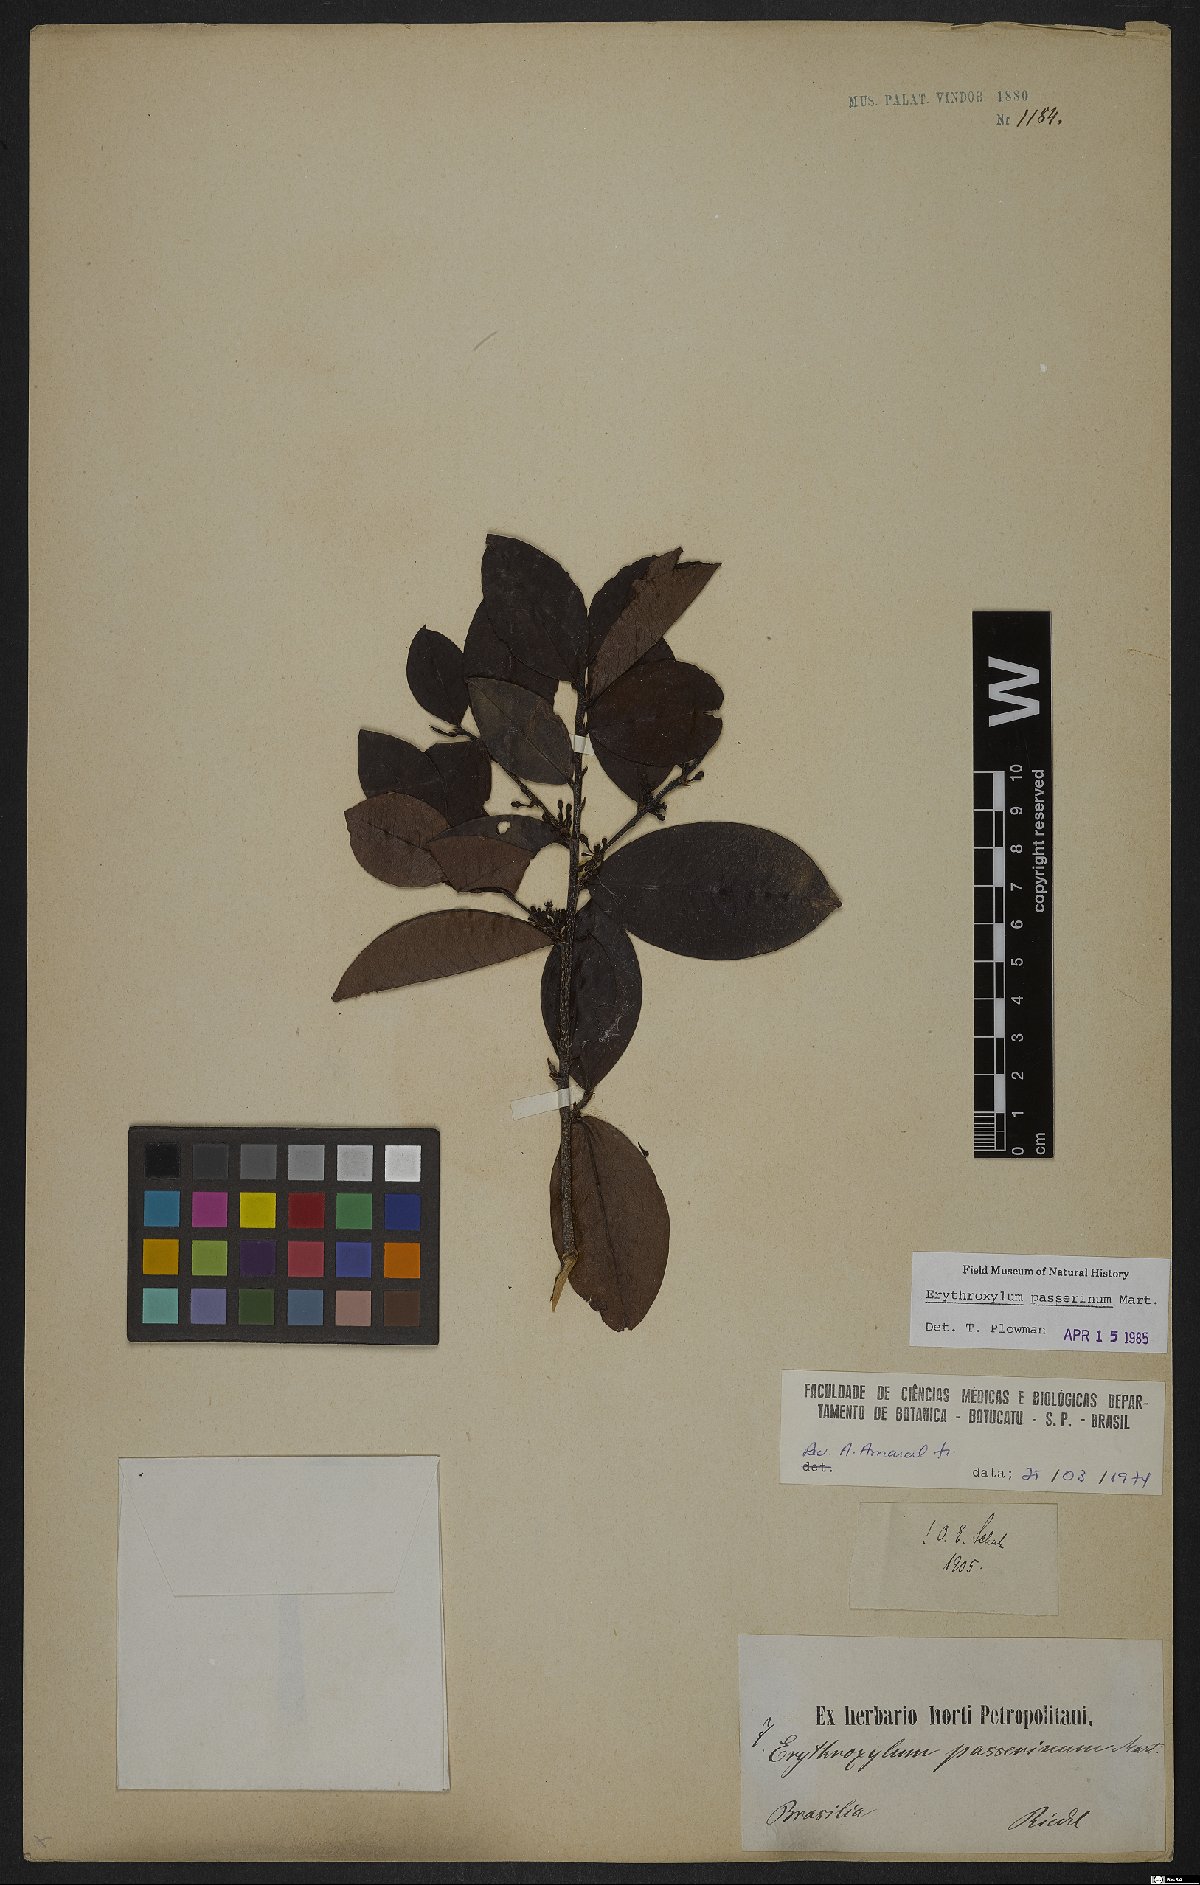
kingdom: Plantae
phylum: Tracheophyta
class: Magnoliopsida
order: Malpighiales
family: Erythroxylaceae
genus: Erythroxylum
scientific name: Erythroxylum passerinum
